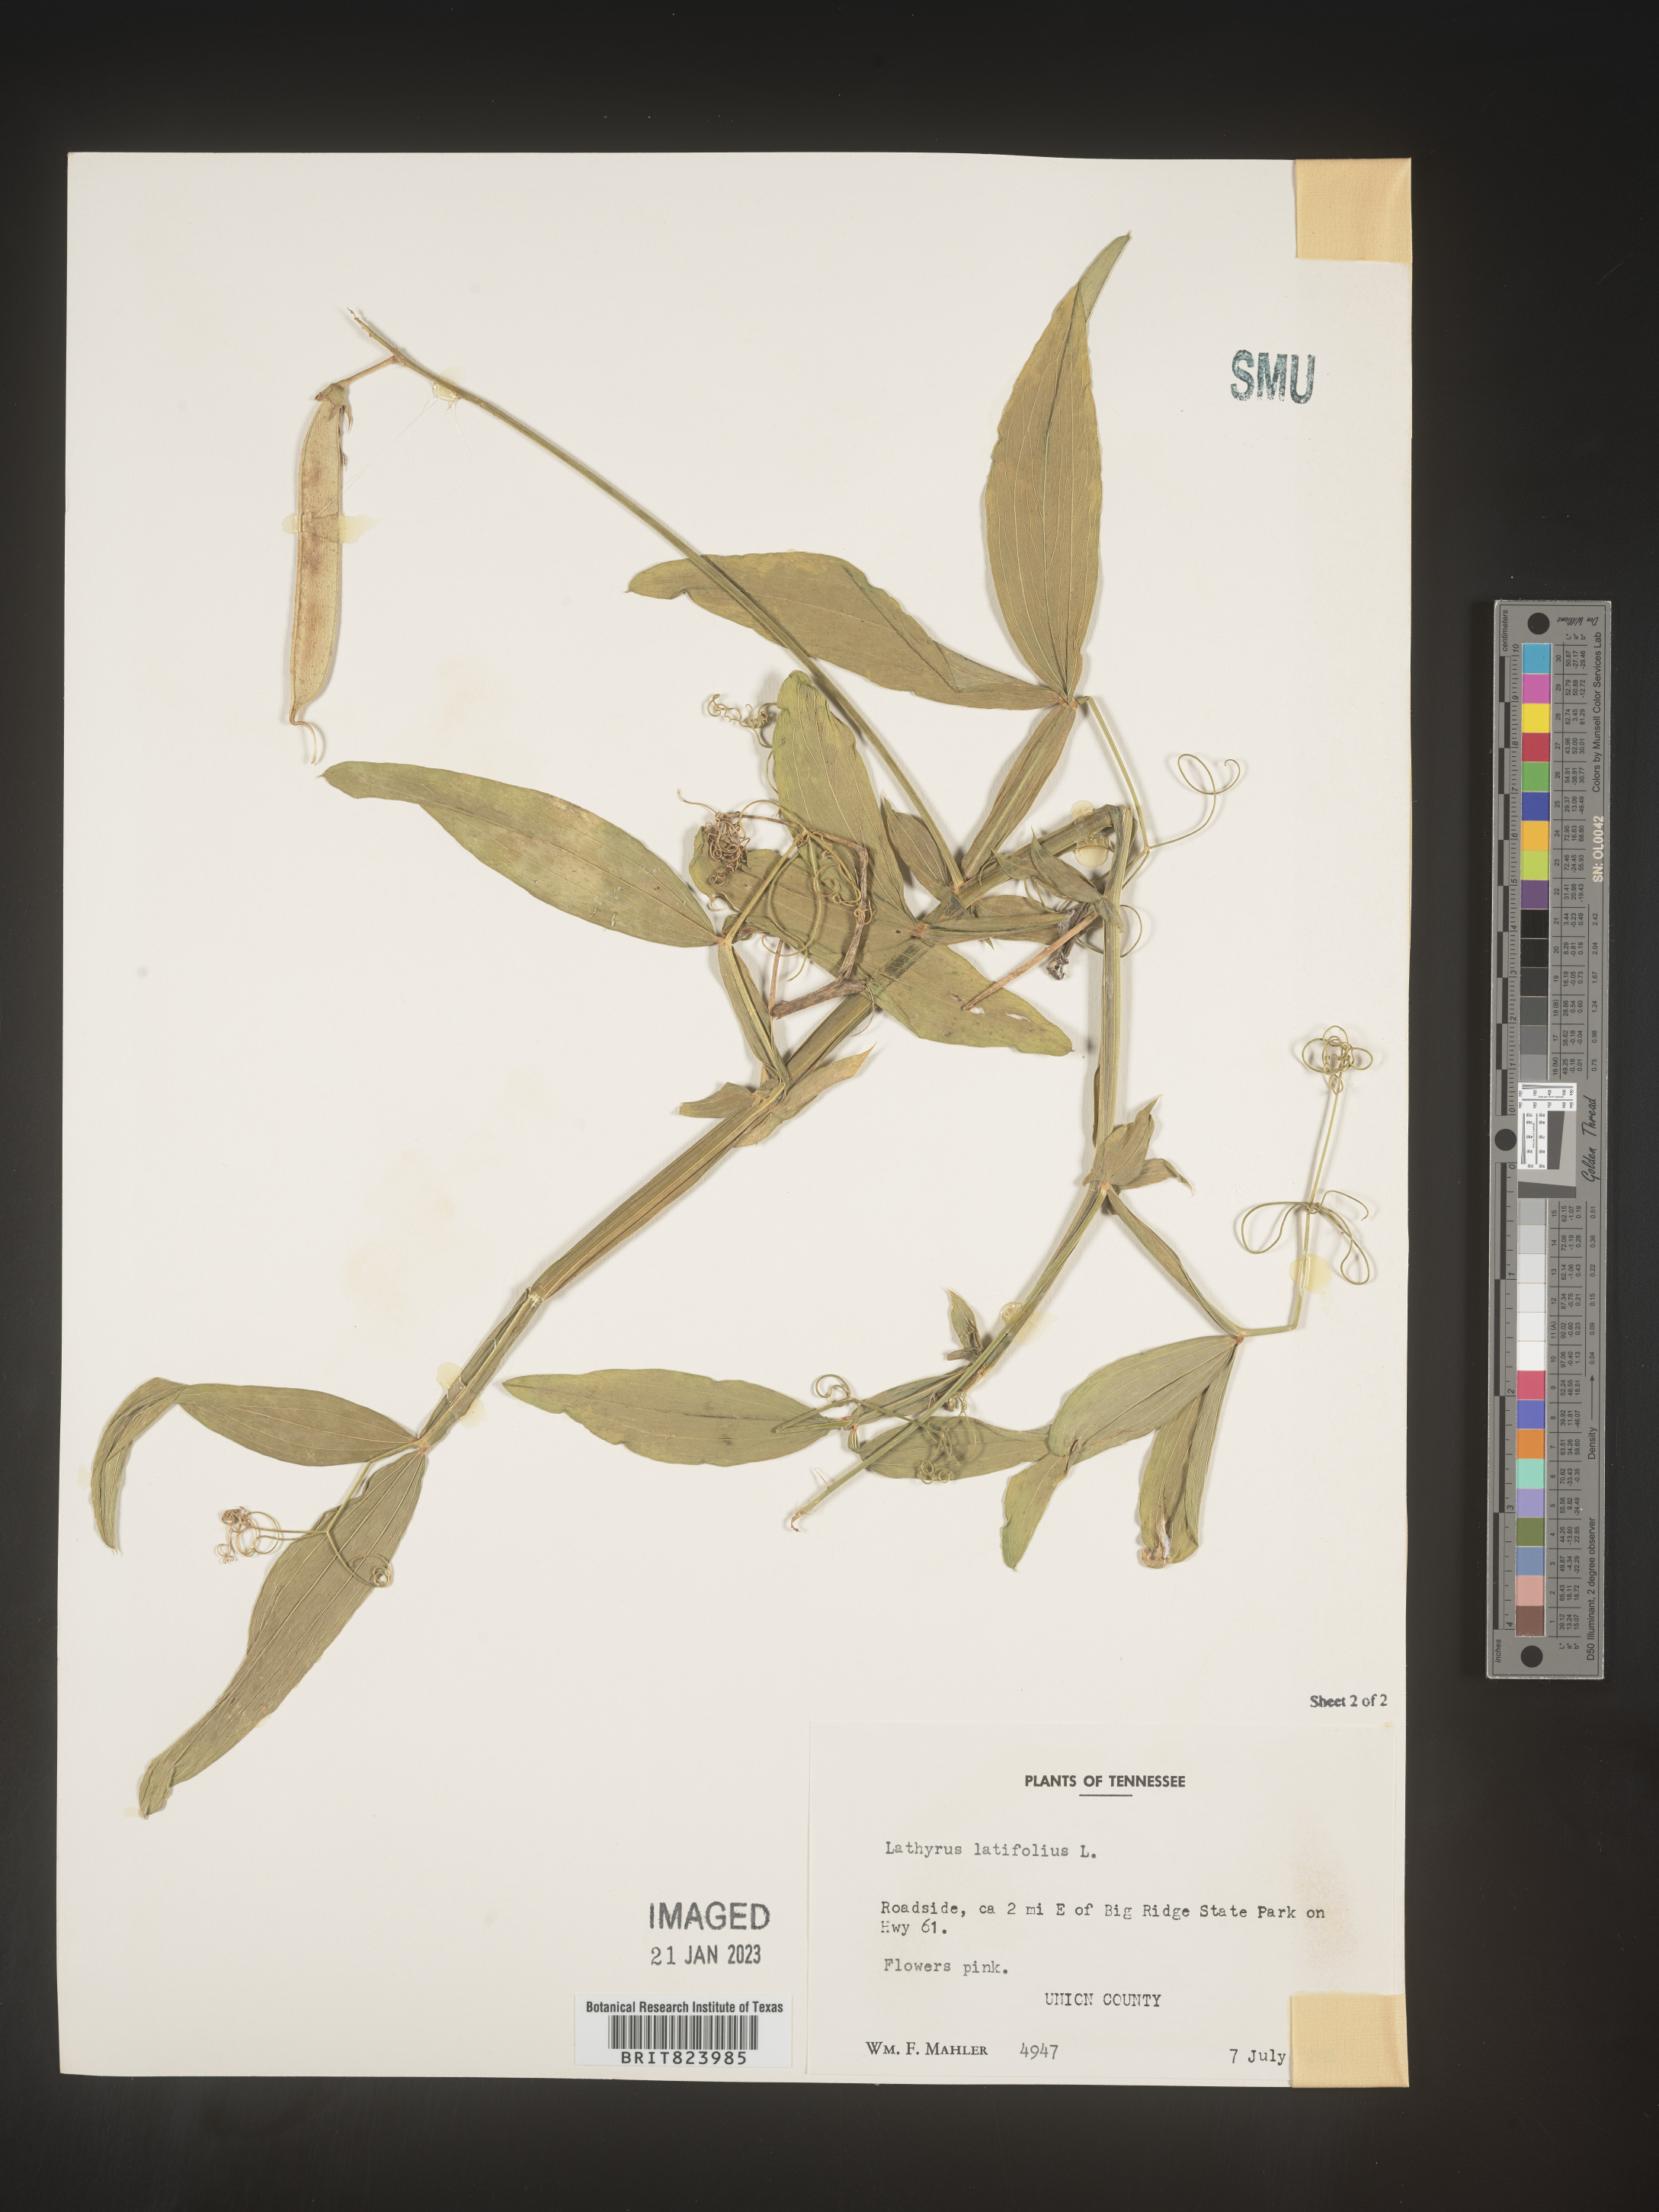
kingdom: Plantae
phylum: Tracheophyta
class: Magnoliopsida
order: Fabales
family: Fabaceae
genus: Lathyrus
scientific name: Lathyrus latifolius
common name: Perennial pea
